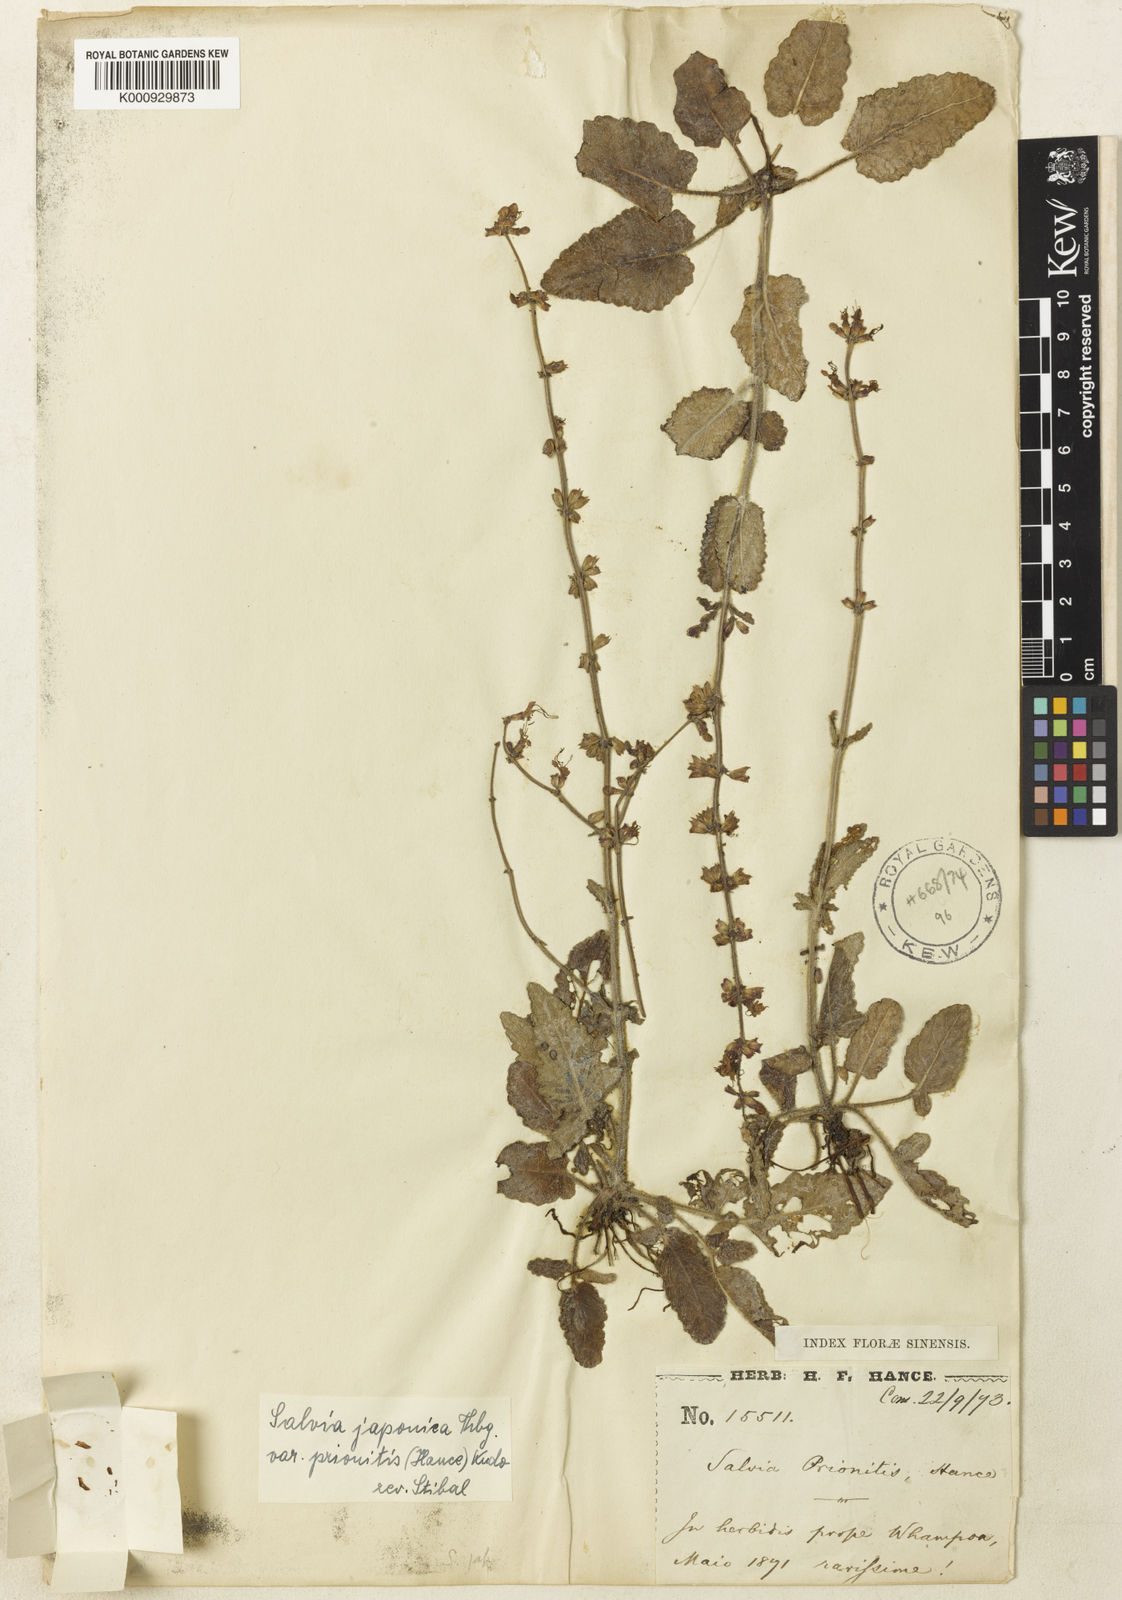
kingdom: Plantae
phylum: Tracheophyta
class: Magnoliopsida
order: Lamiales
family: Lamiaceae
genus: Salvia
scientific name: Salvia japonica
